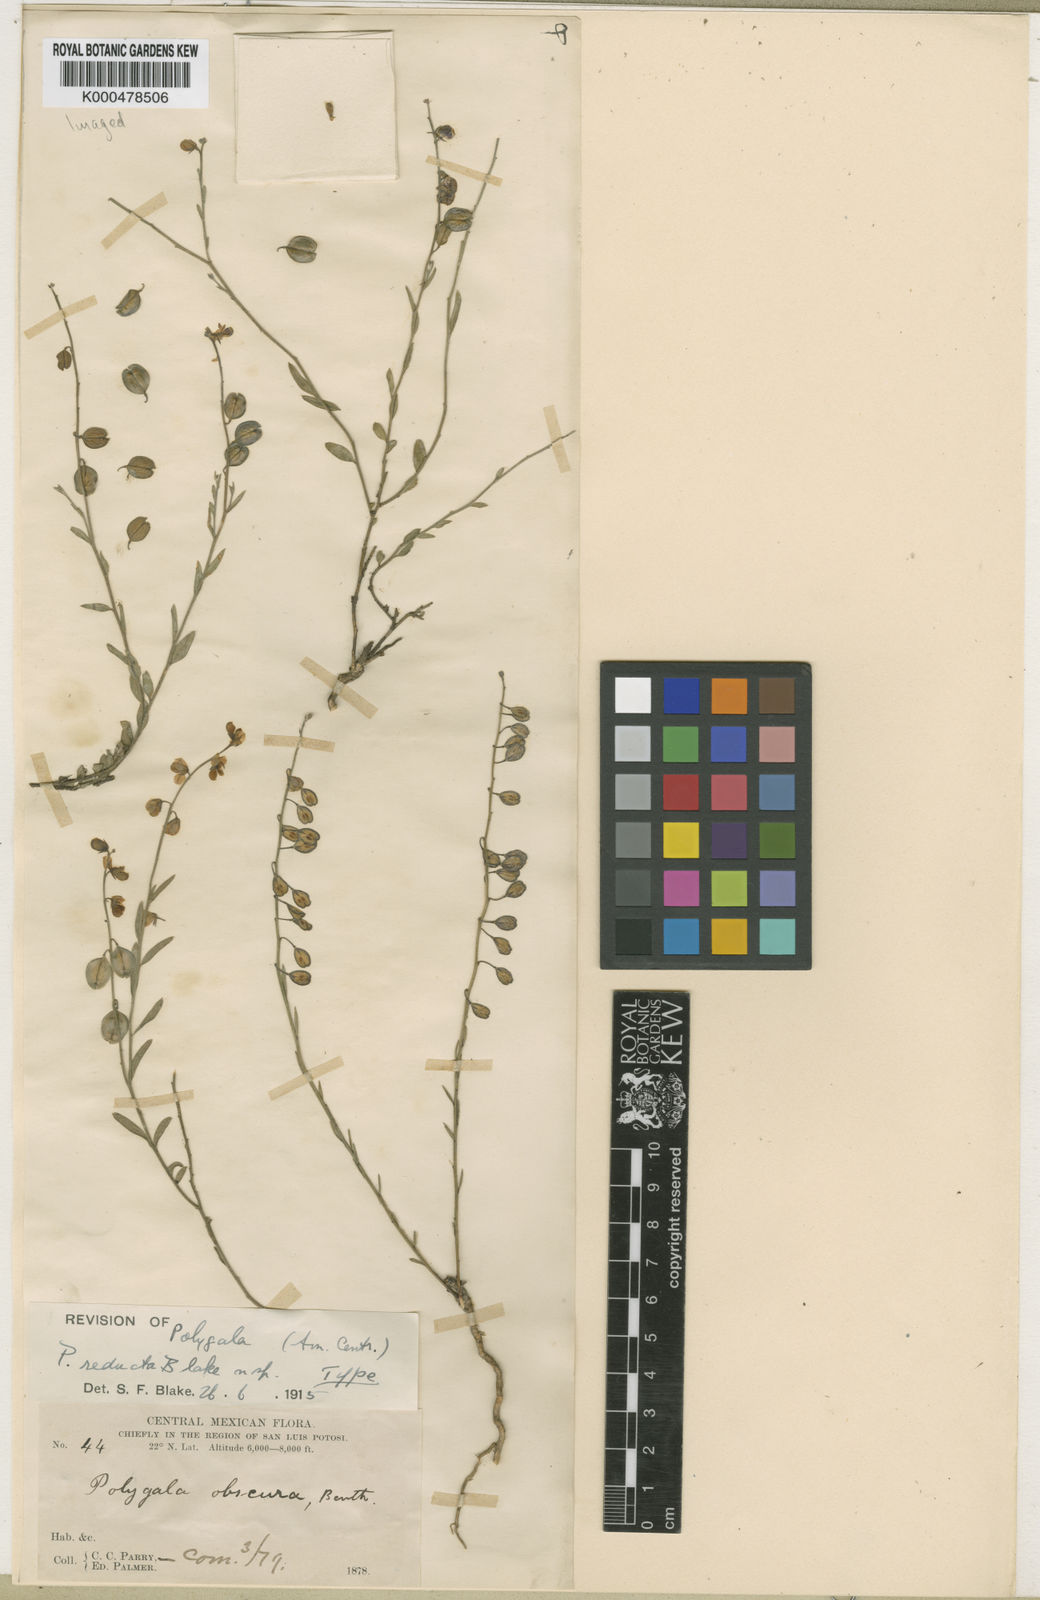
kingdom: Plantae
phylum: Tracheophyta
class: Magnoliopsida
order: Fabales
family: Polygalaceae
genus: Hebecarpa
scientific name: Hebecarpa barbeyana
